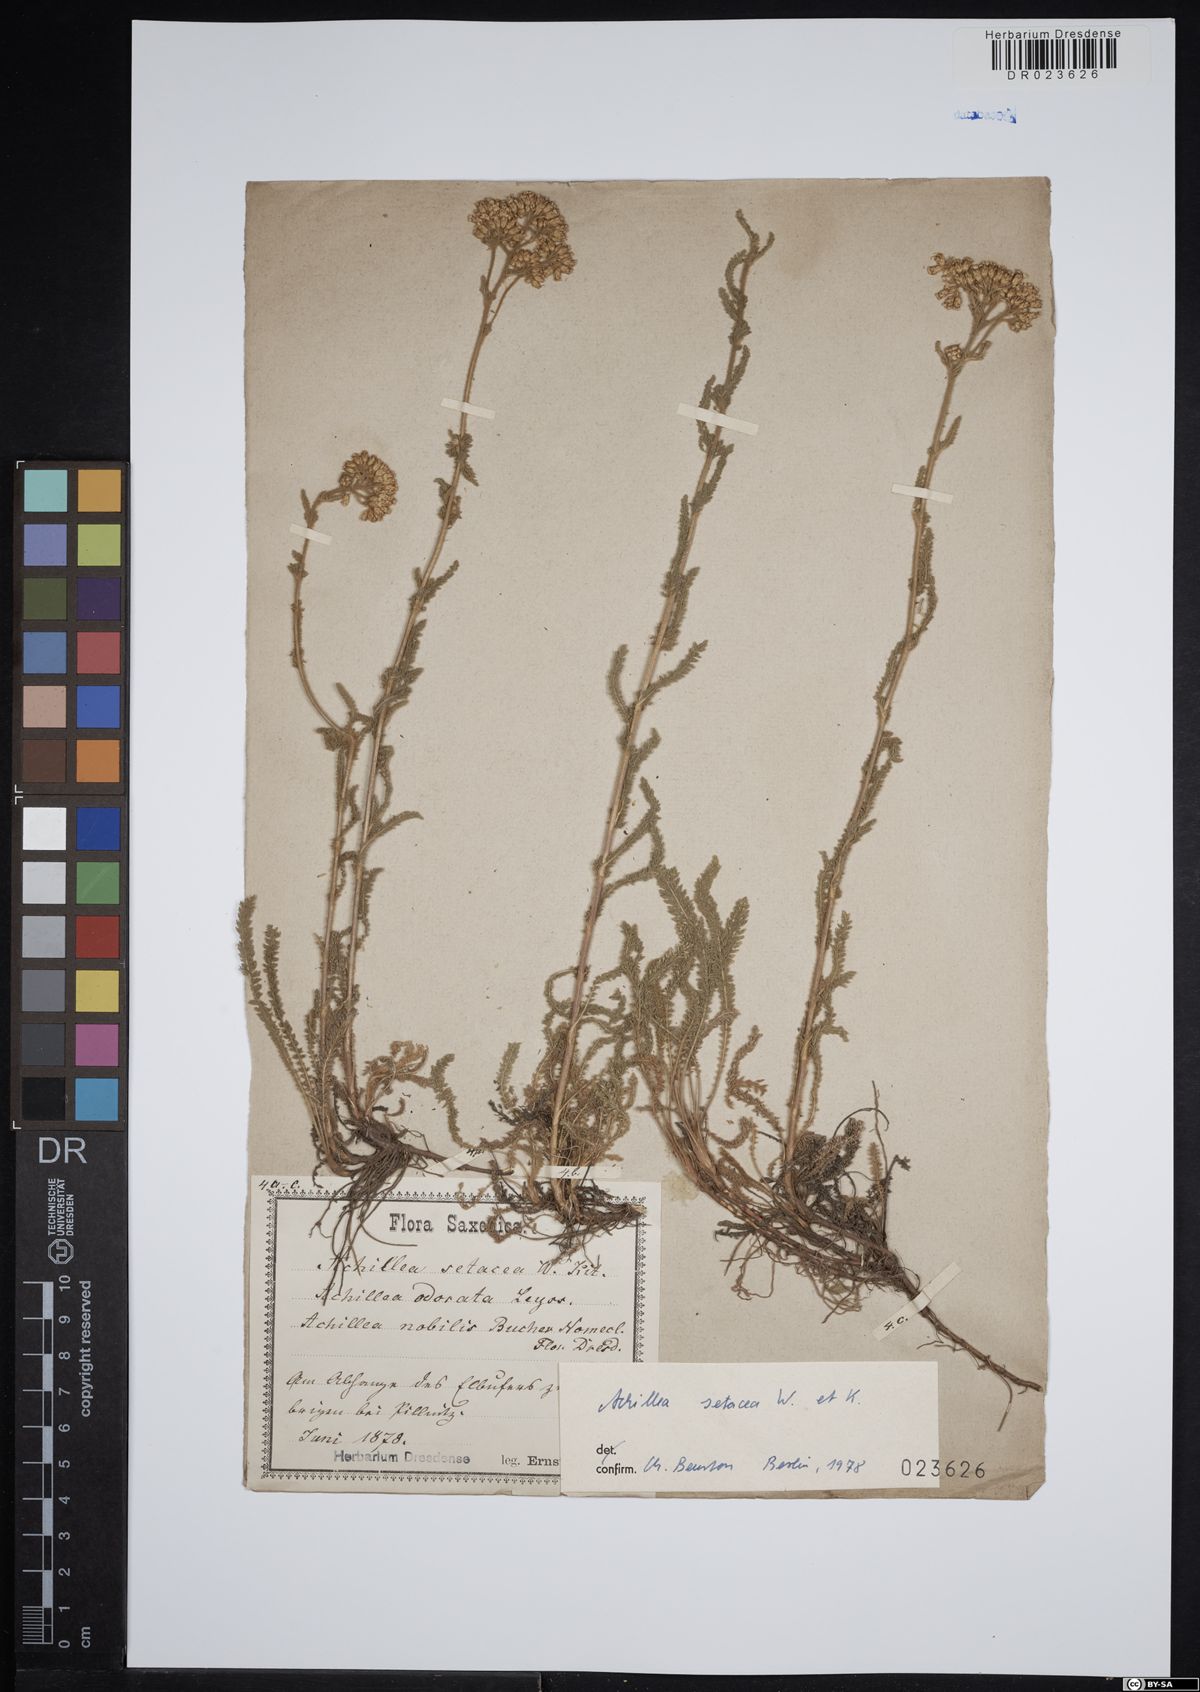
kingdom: Plantae
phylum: Tracheophyta
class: Magnoliopsida
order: Asterales
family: Asteraceae
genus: Achillea
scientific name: Achillea setacea
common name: Bristly yarrow
